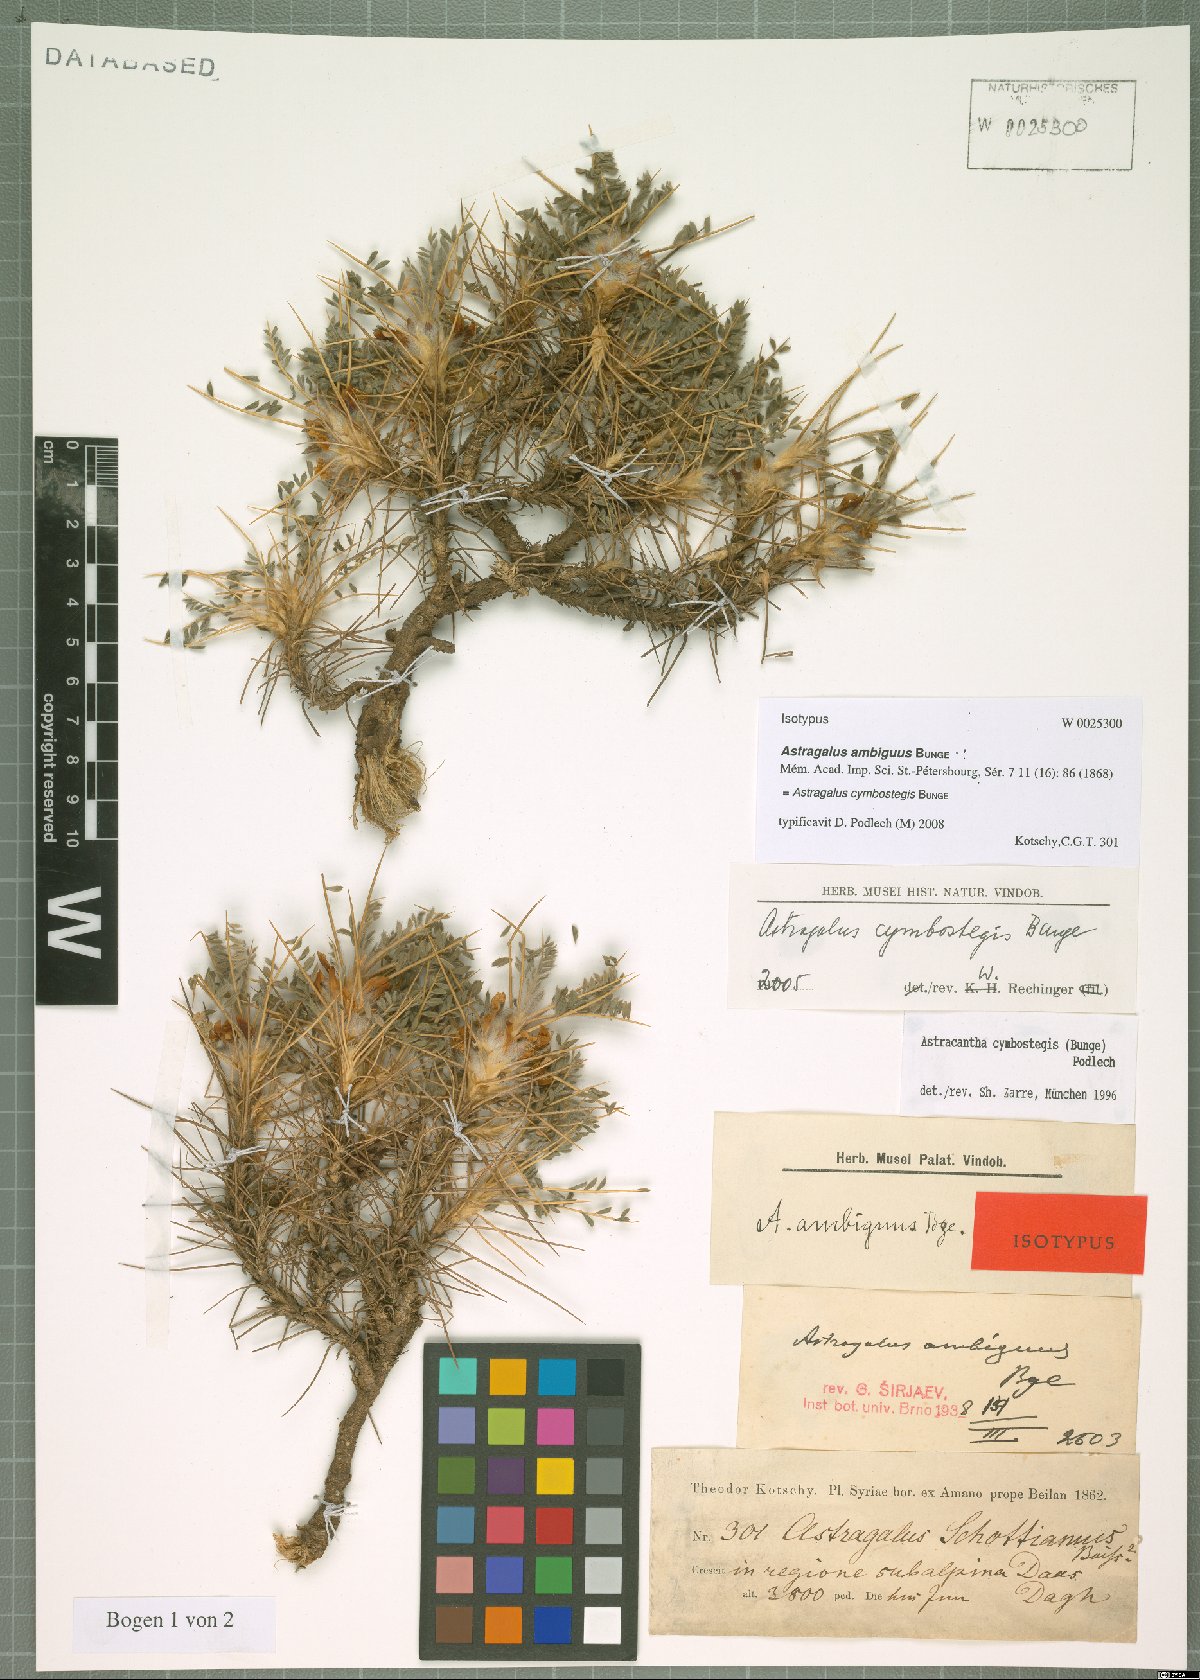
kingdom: Plantae
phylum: Tracheophyta
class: Magnoliopsida
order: Fabales
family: Fabaceae
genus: Astragalus
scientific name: Astragalus cymbostegis
